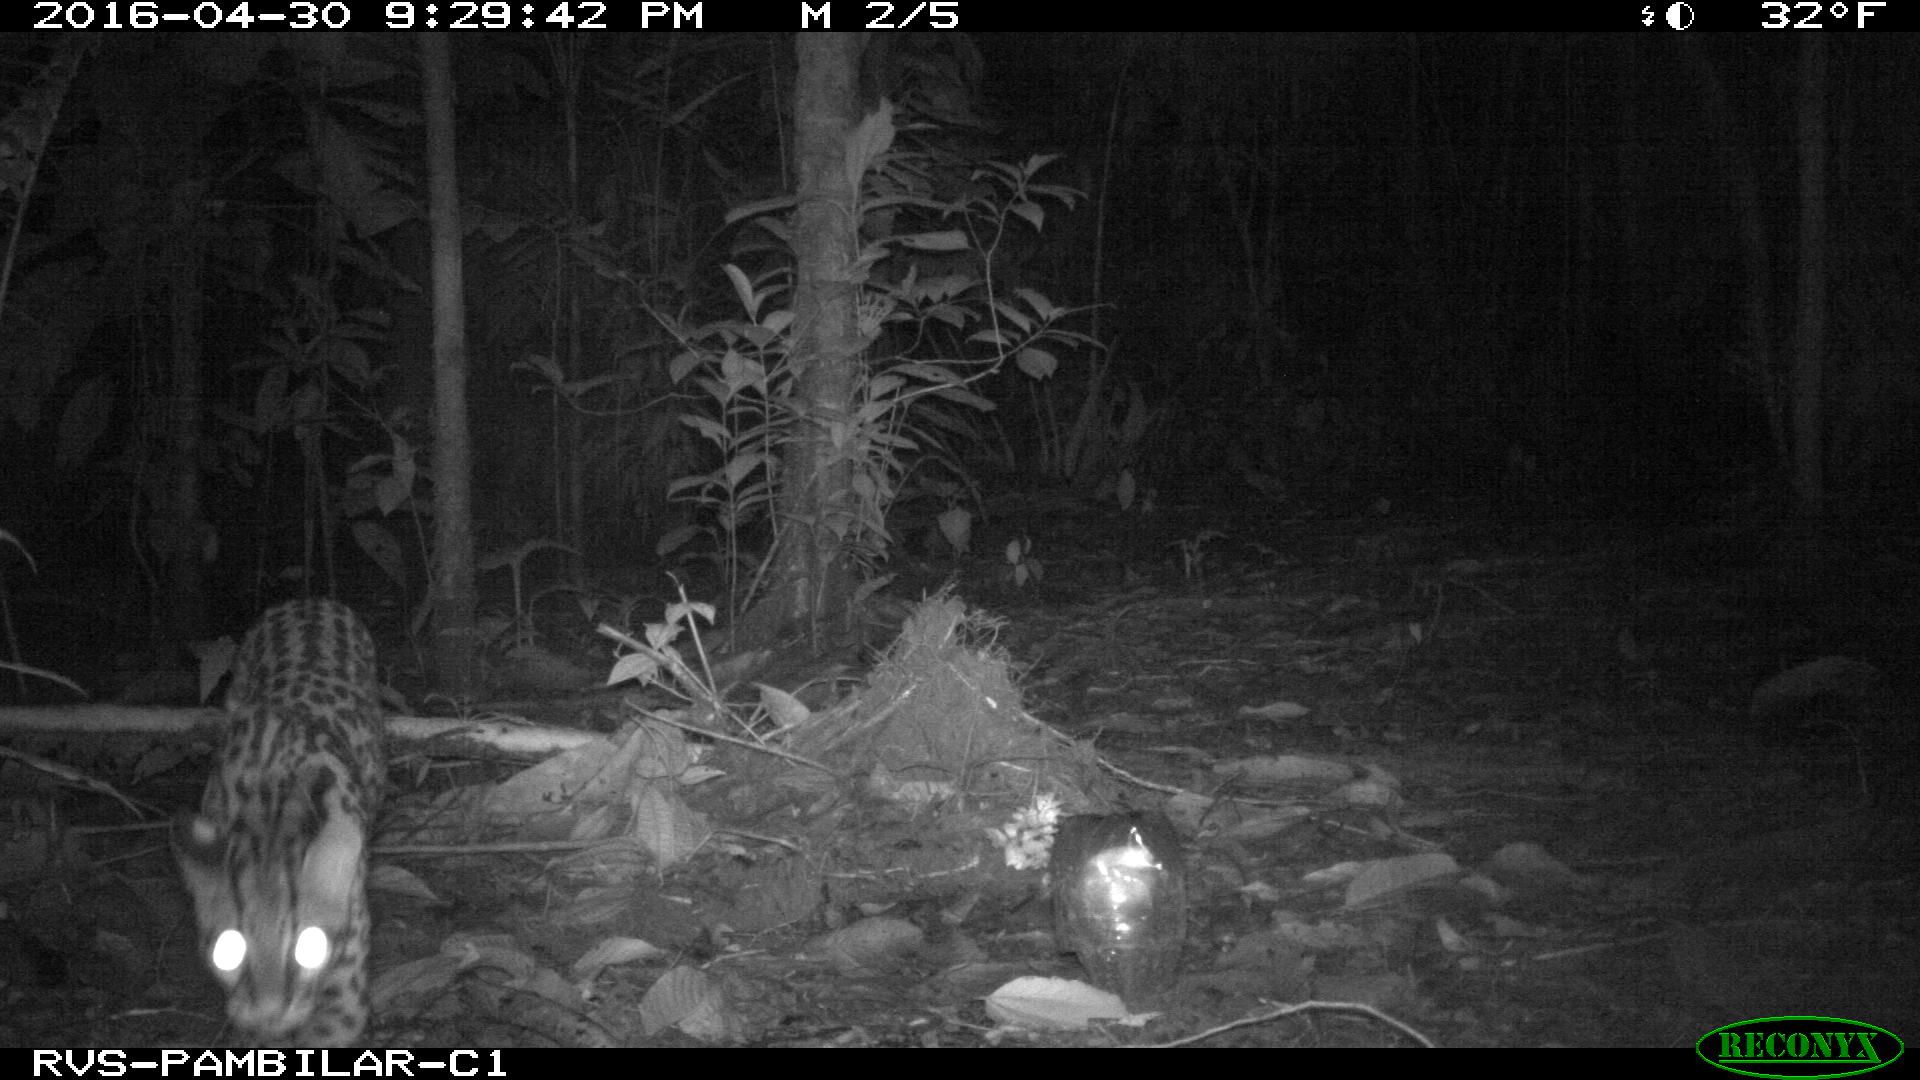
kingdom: Animalia
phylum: Chordata
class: Mammalia
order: Carnivora
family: Felidae
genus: Leopardus
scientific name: Leopardus pardalis
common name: Ocelot
